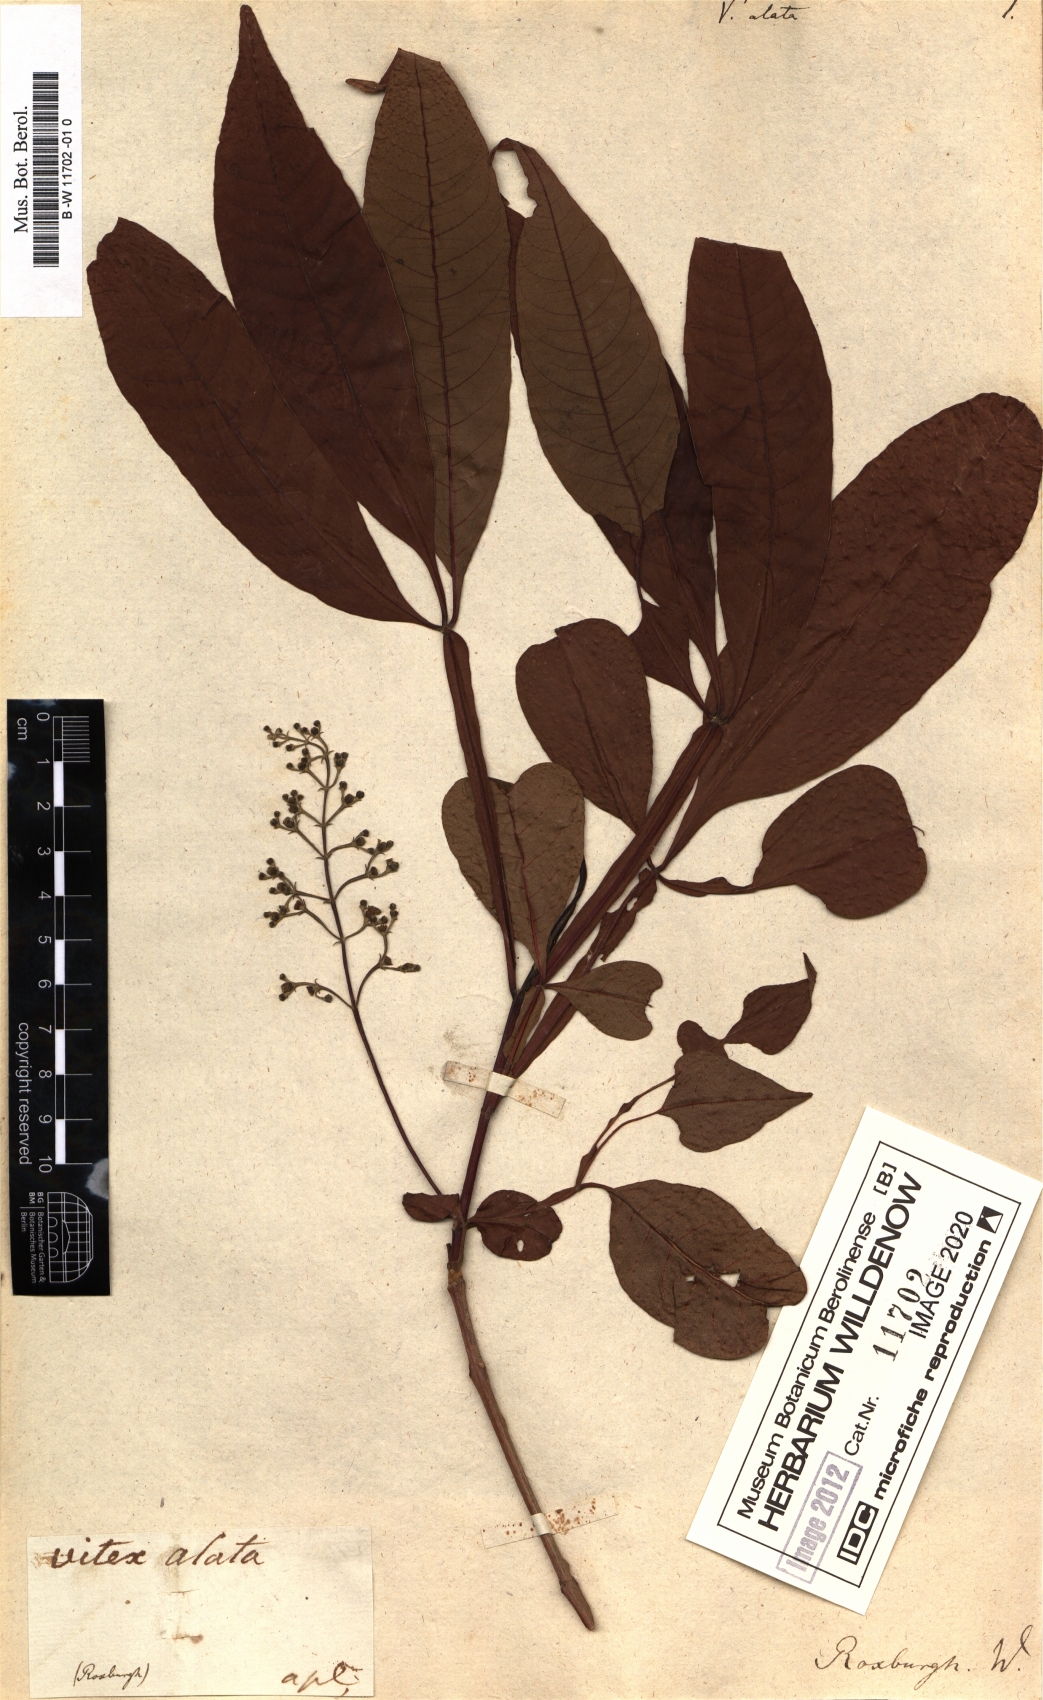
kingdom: Plantae
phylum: Tracheophyta
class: Magnoliopsida
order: Lamiales
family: Lamiaceae
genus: Vitex
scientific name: Vitex
